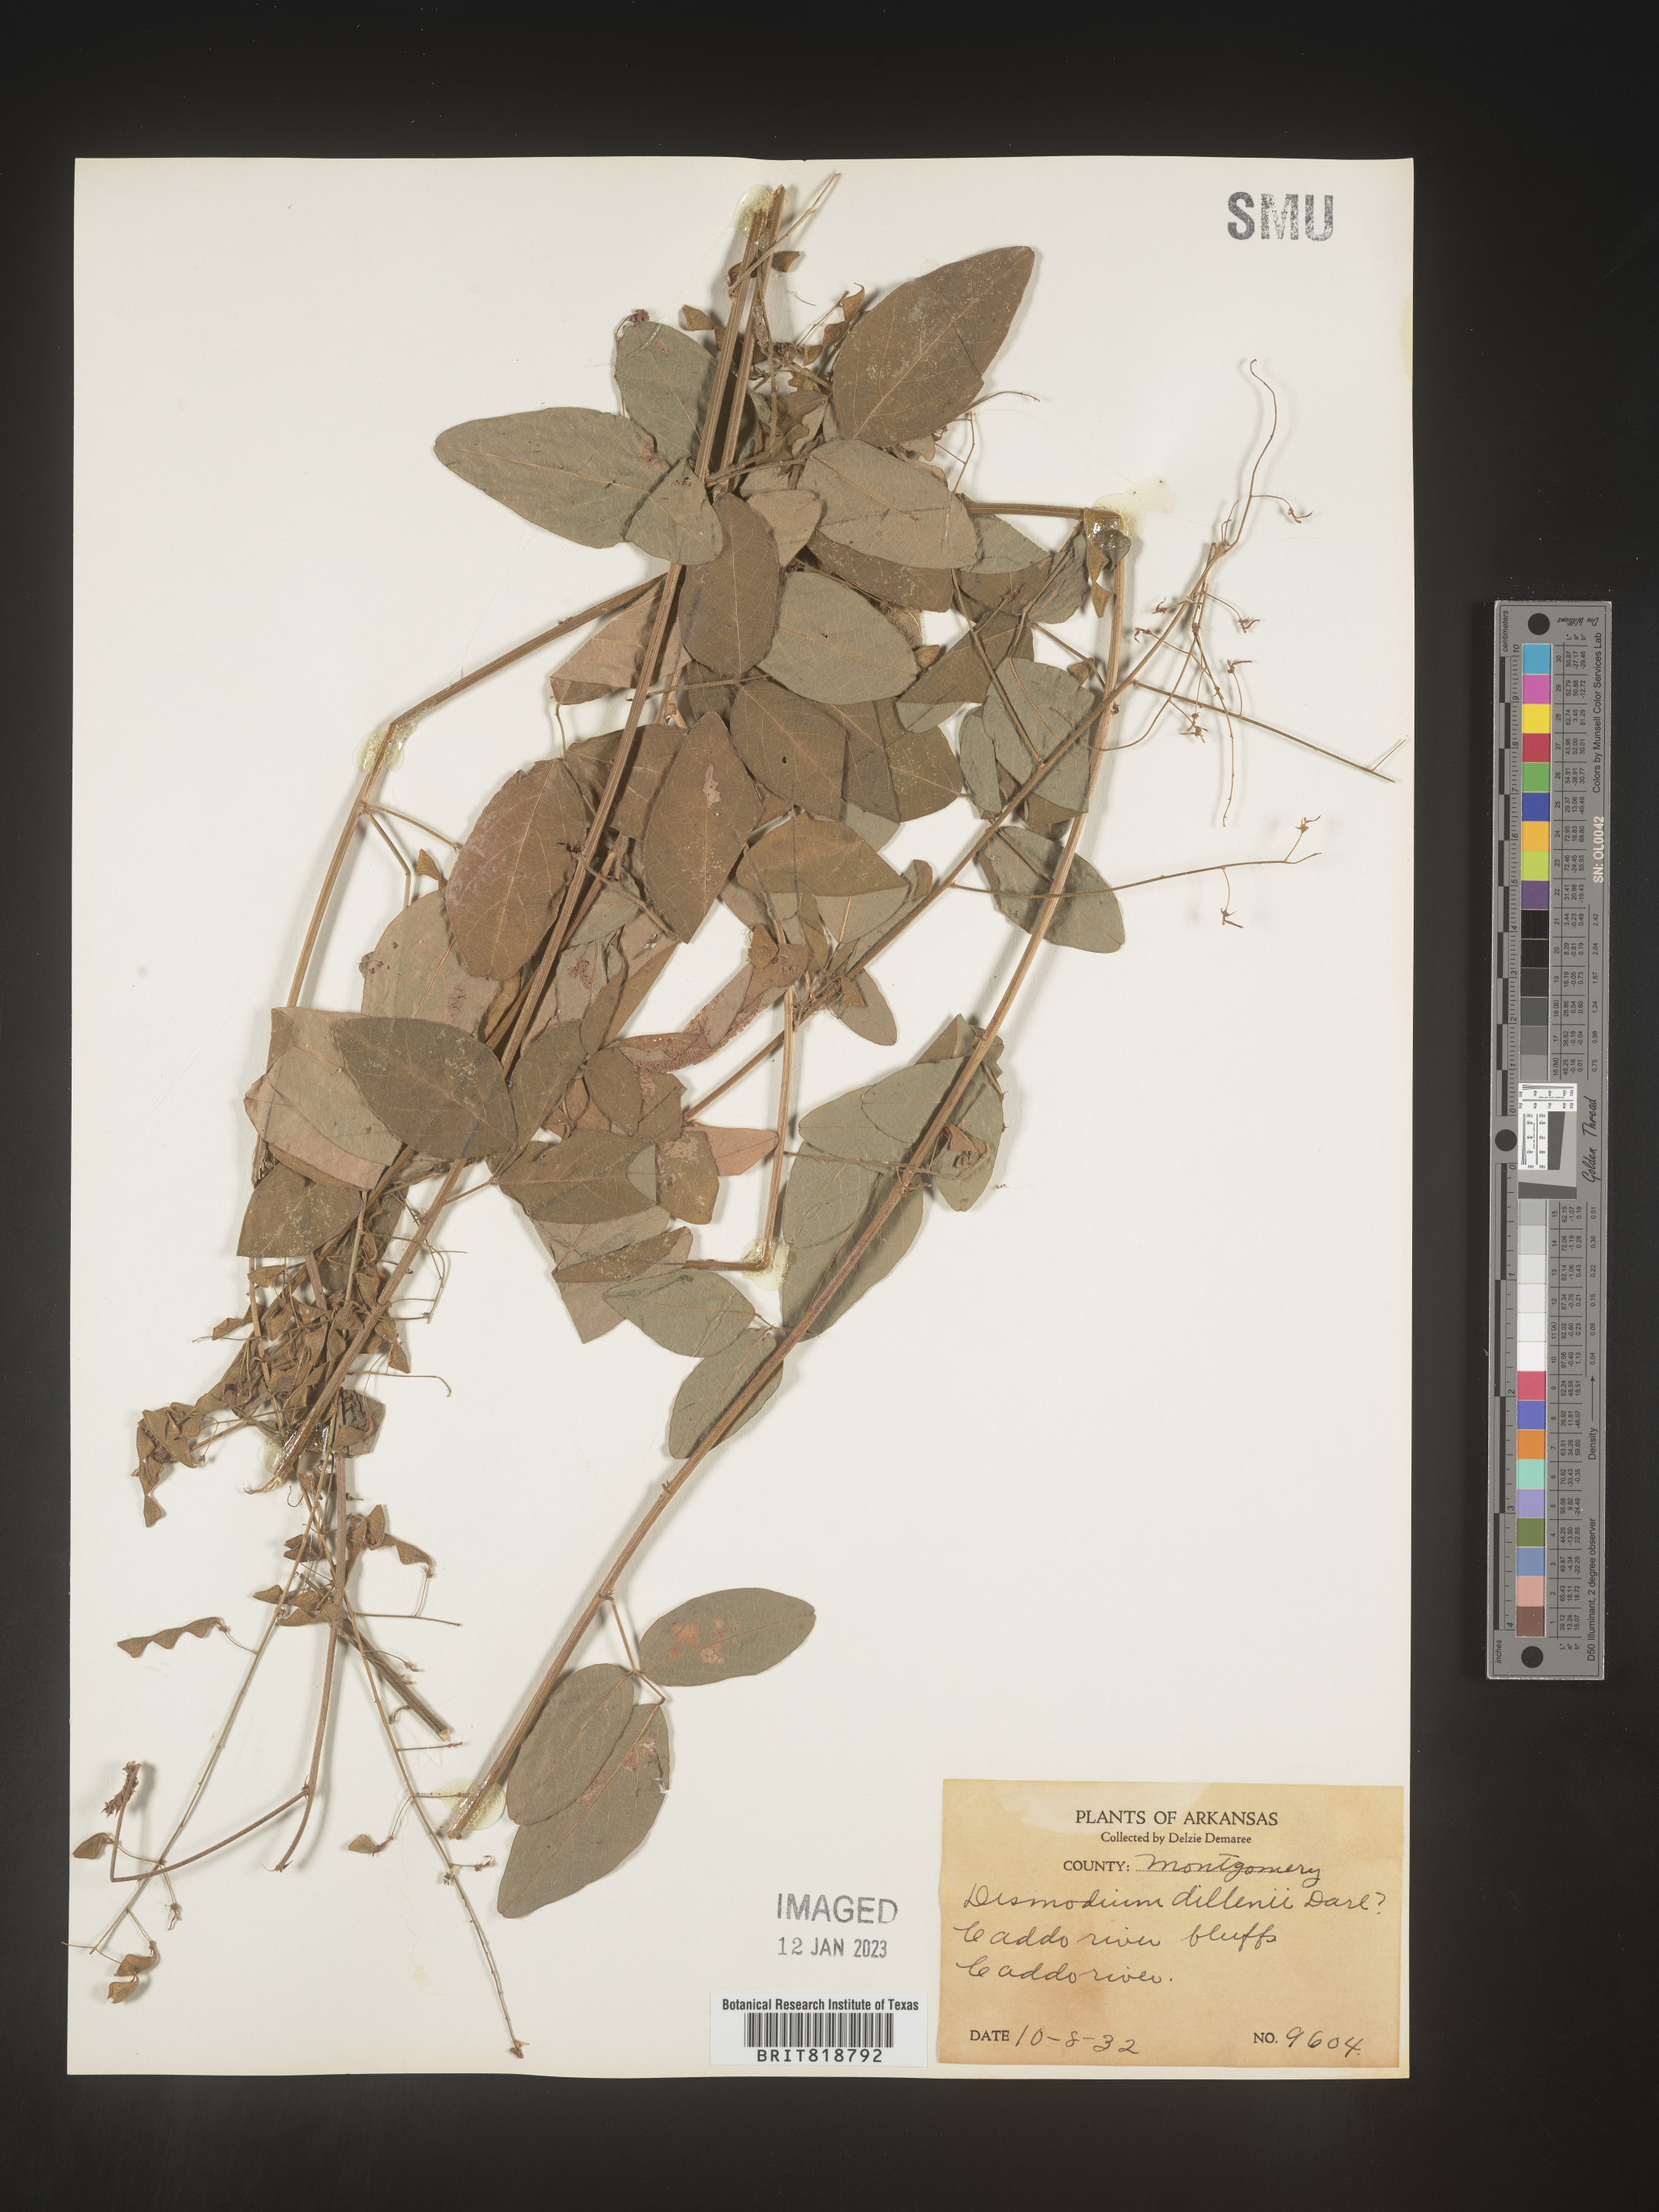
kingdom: Plantae
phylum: Tracheophyta
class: Magnoliopsida
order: Fabales
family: Fabaceae
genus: Desmodium
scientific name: Desmodium perplexum
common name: Perplexed tick trefoil
